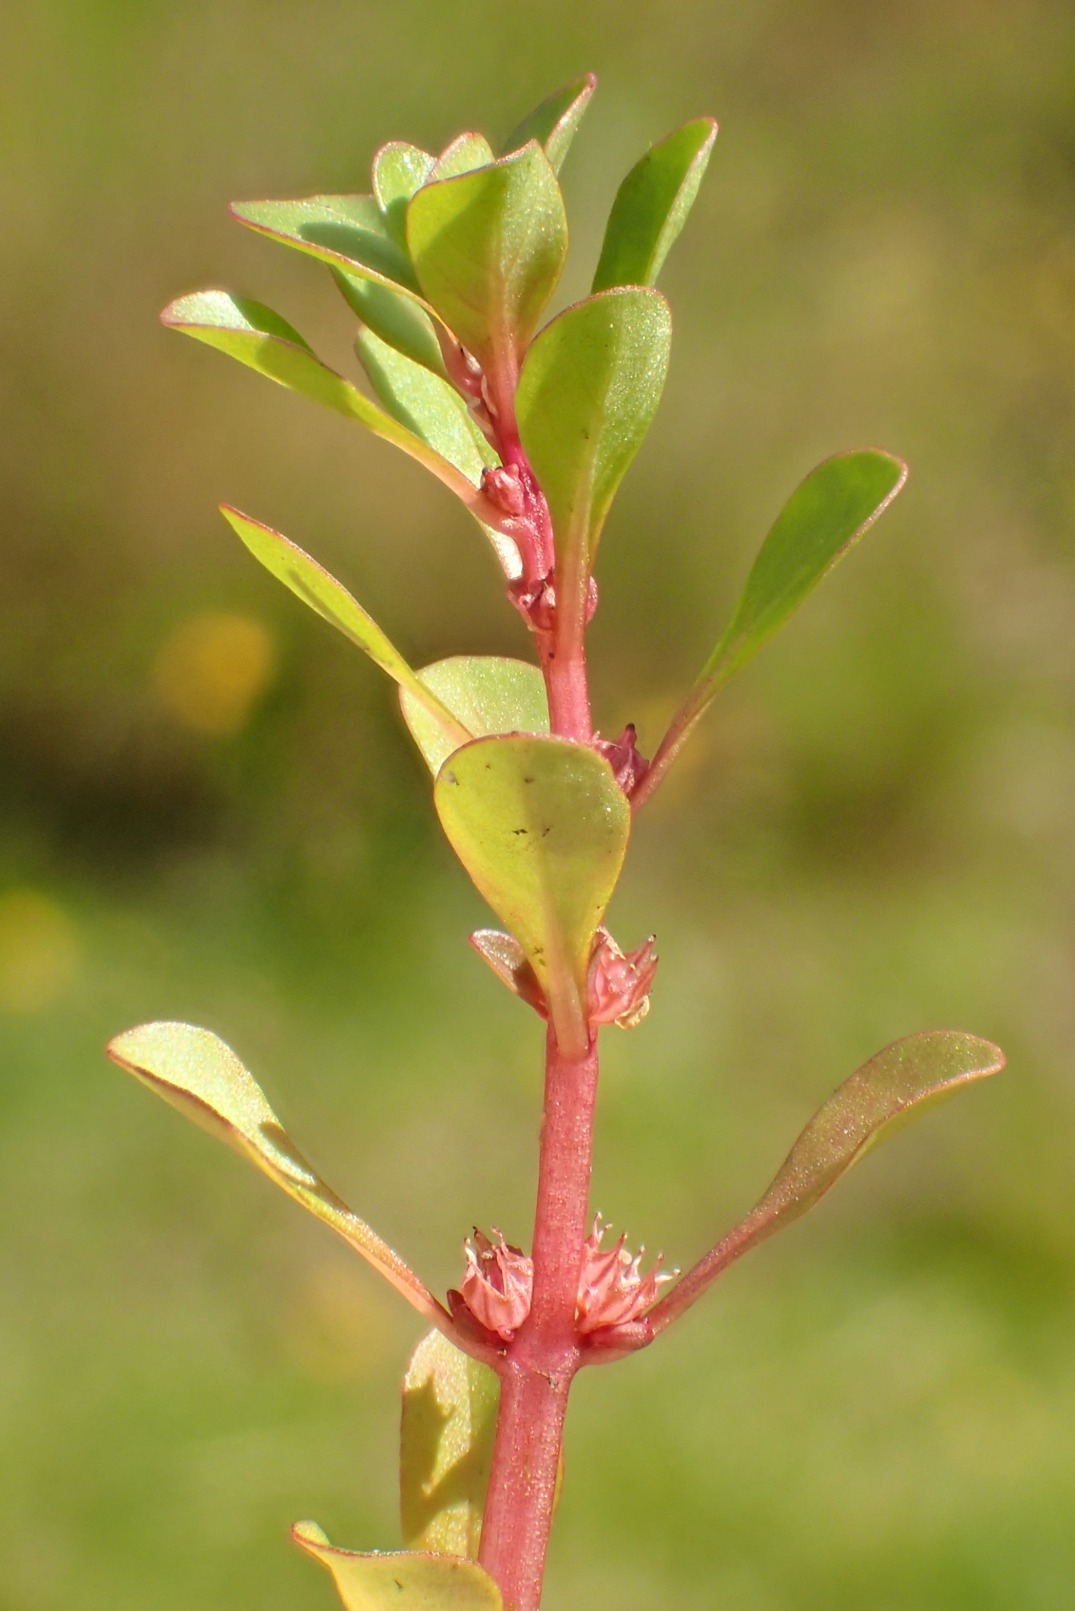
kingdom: Plantae
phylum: Tracheophyta
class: Magnoliopsida
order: Myrtales
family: Lythraceae
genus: Lythrum
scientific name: Lythrum portula
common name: Vandportulak
